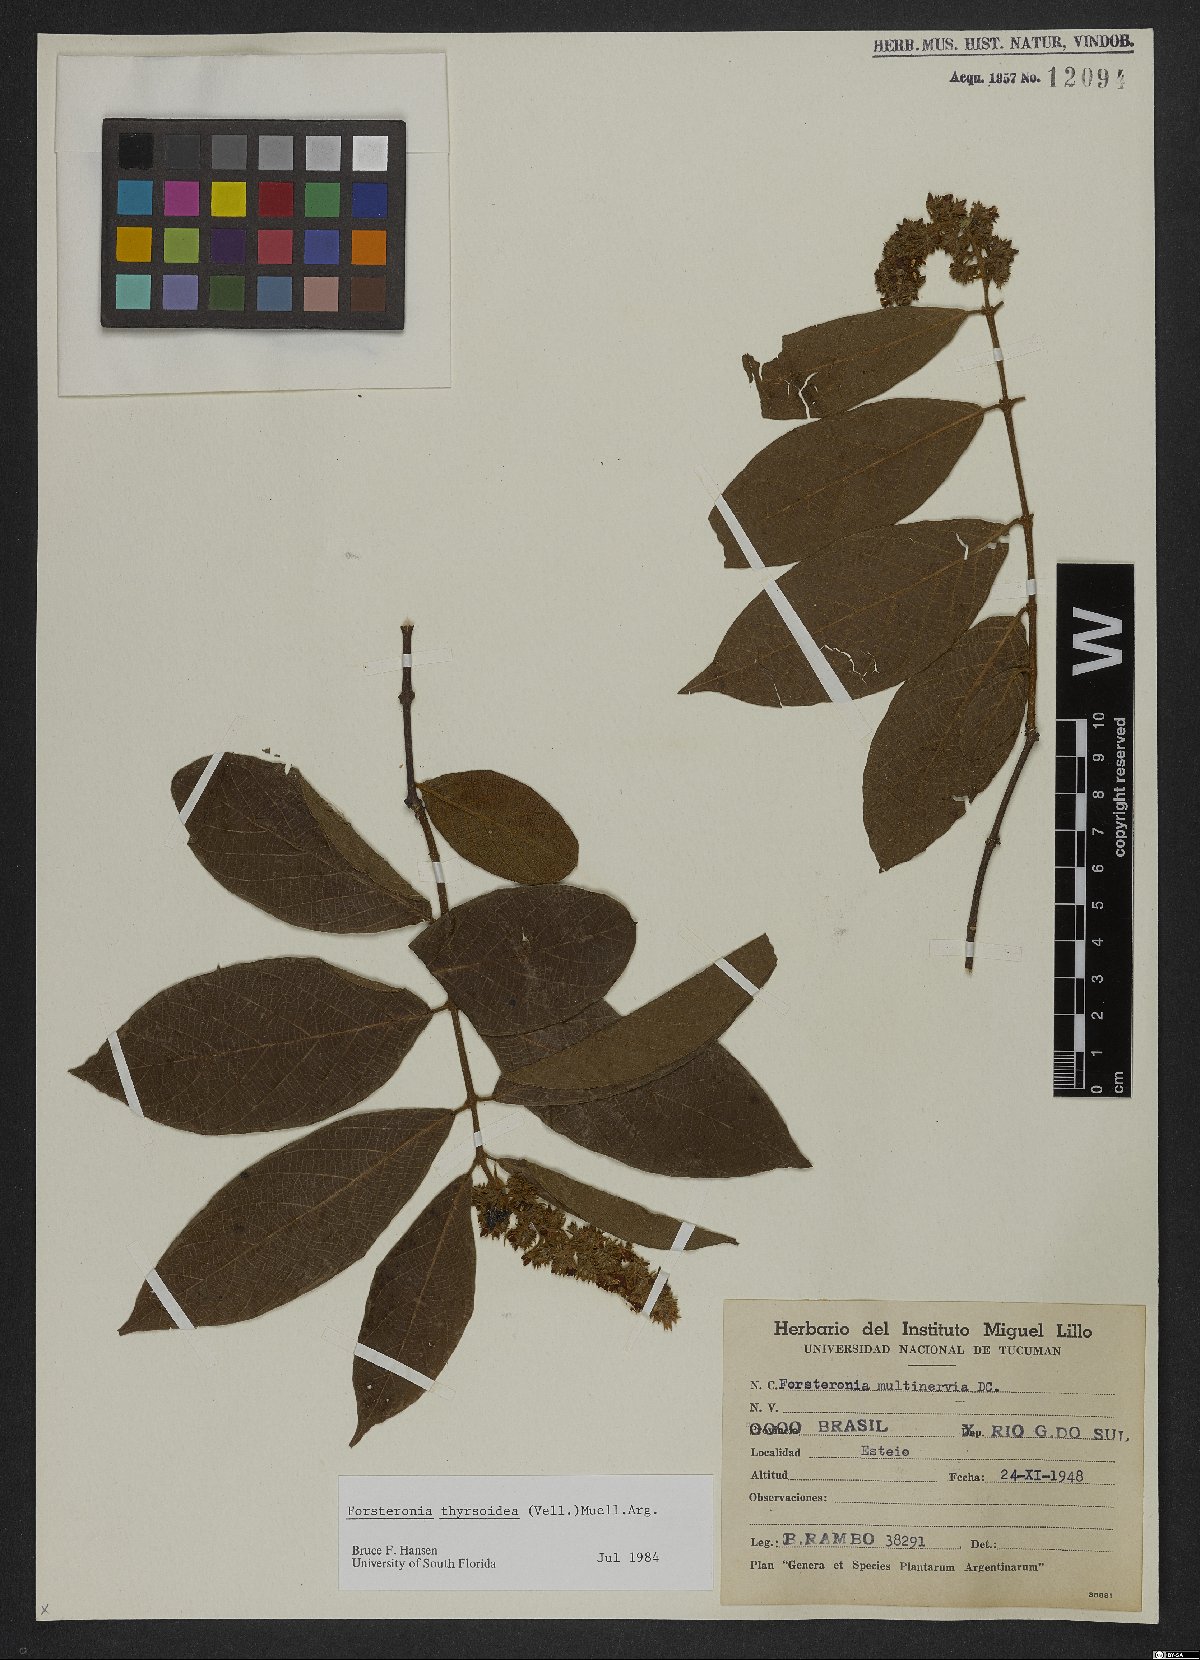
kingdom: Plantae
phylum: Tracheophyta
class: Magnoliopsida
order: Gentianales
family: Apocynaceae
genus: Forsteronia
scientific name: Forsteronia thyrsoidea
